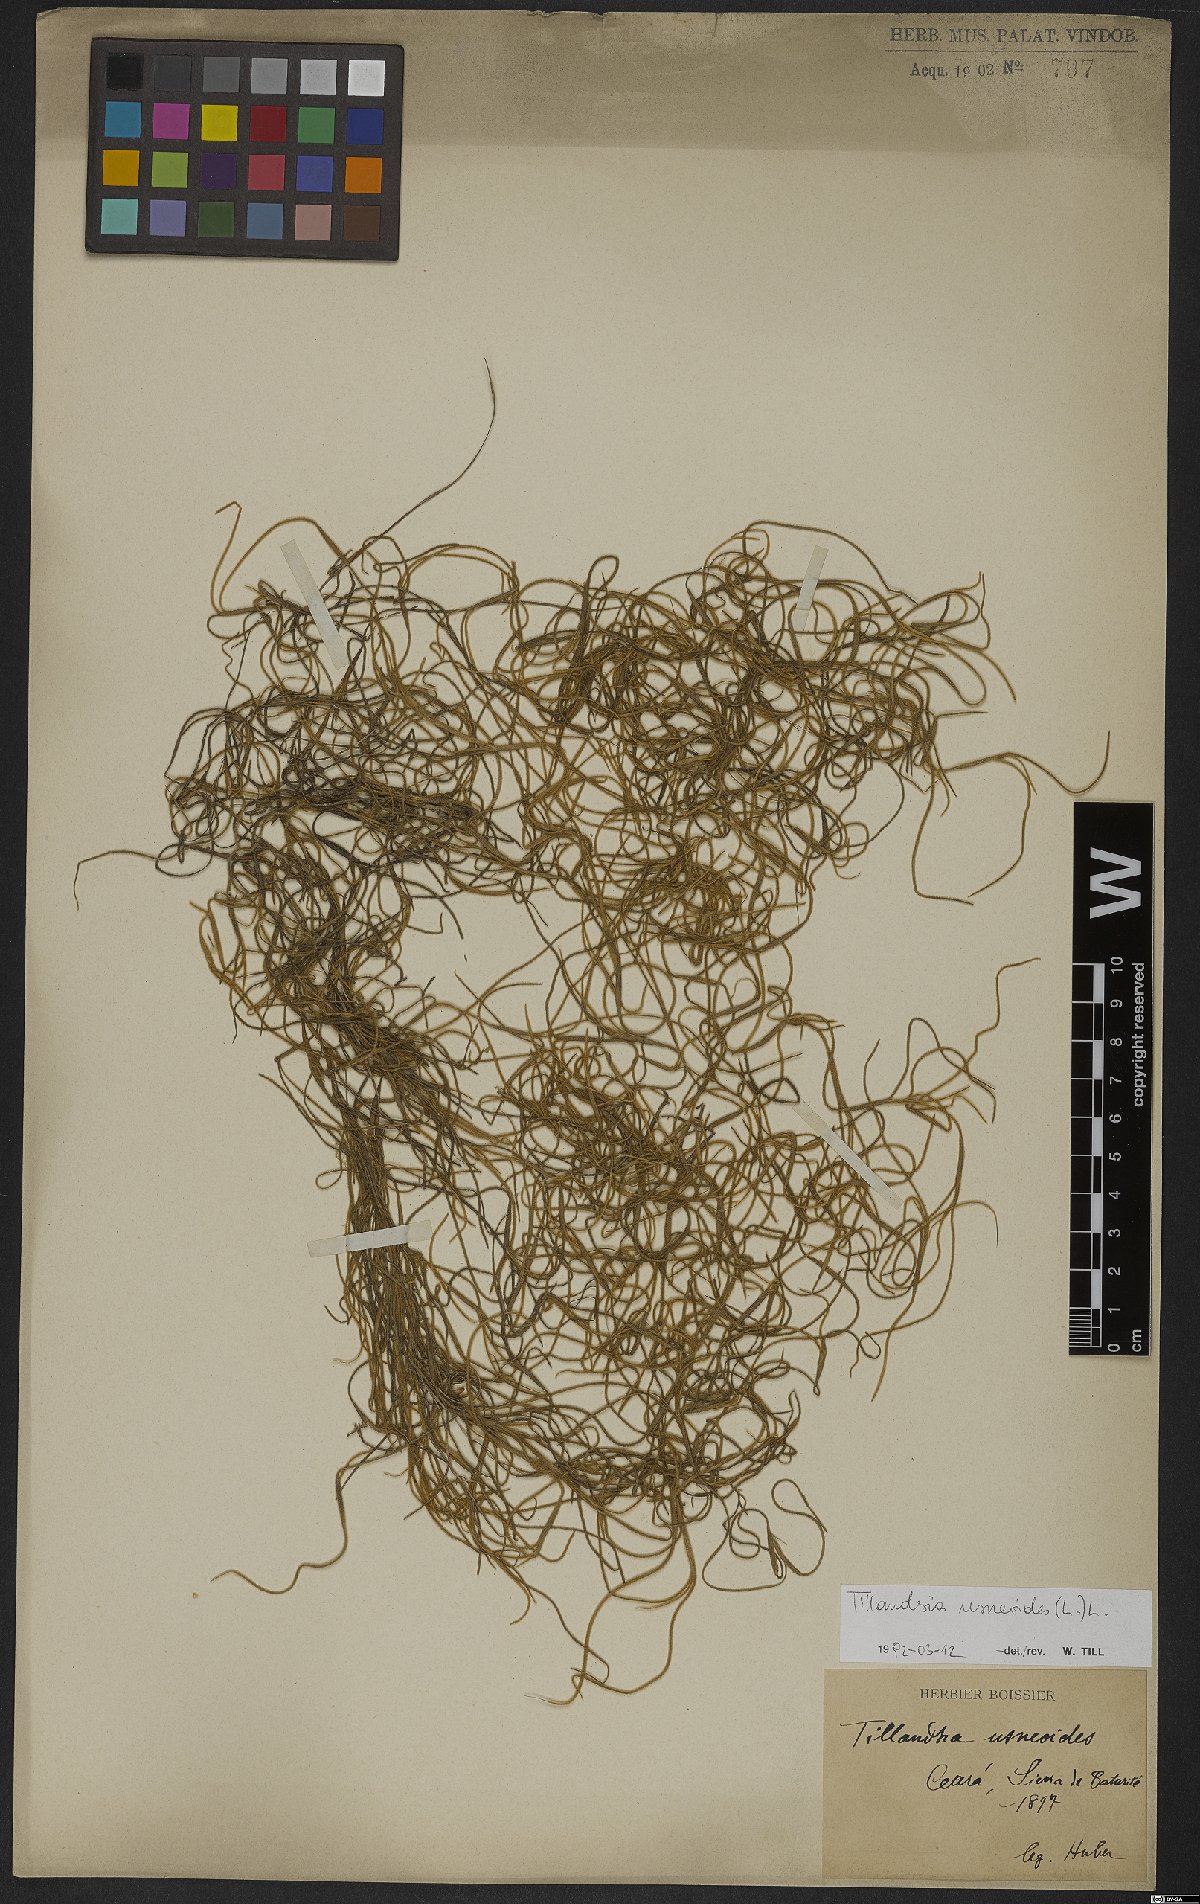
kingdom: Plantae
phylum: Tracheophyta
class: Liliopsida
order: Poales
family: Bromeliaceae
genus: Tillandsia
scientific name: Tillandsia usneoides
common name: Spanish moss
